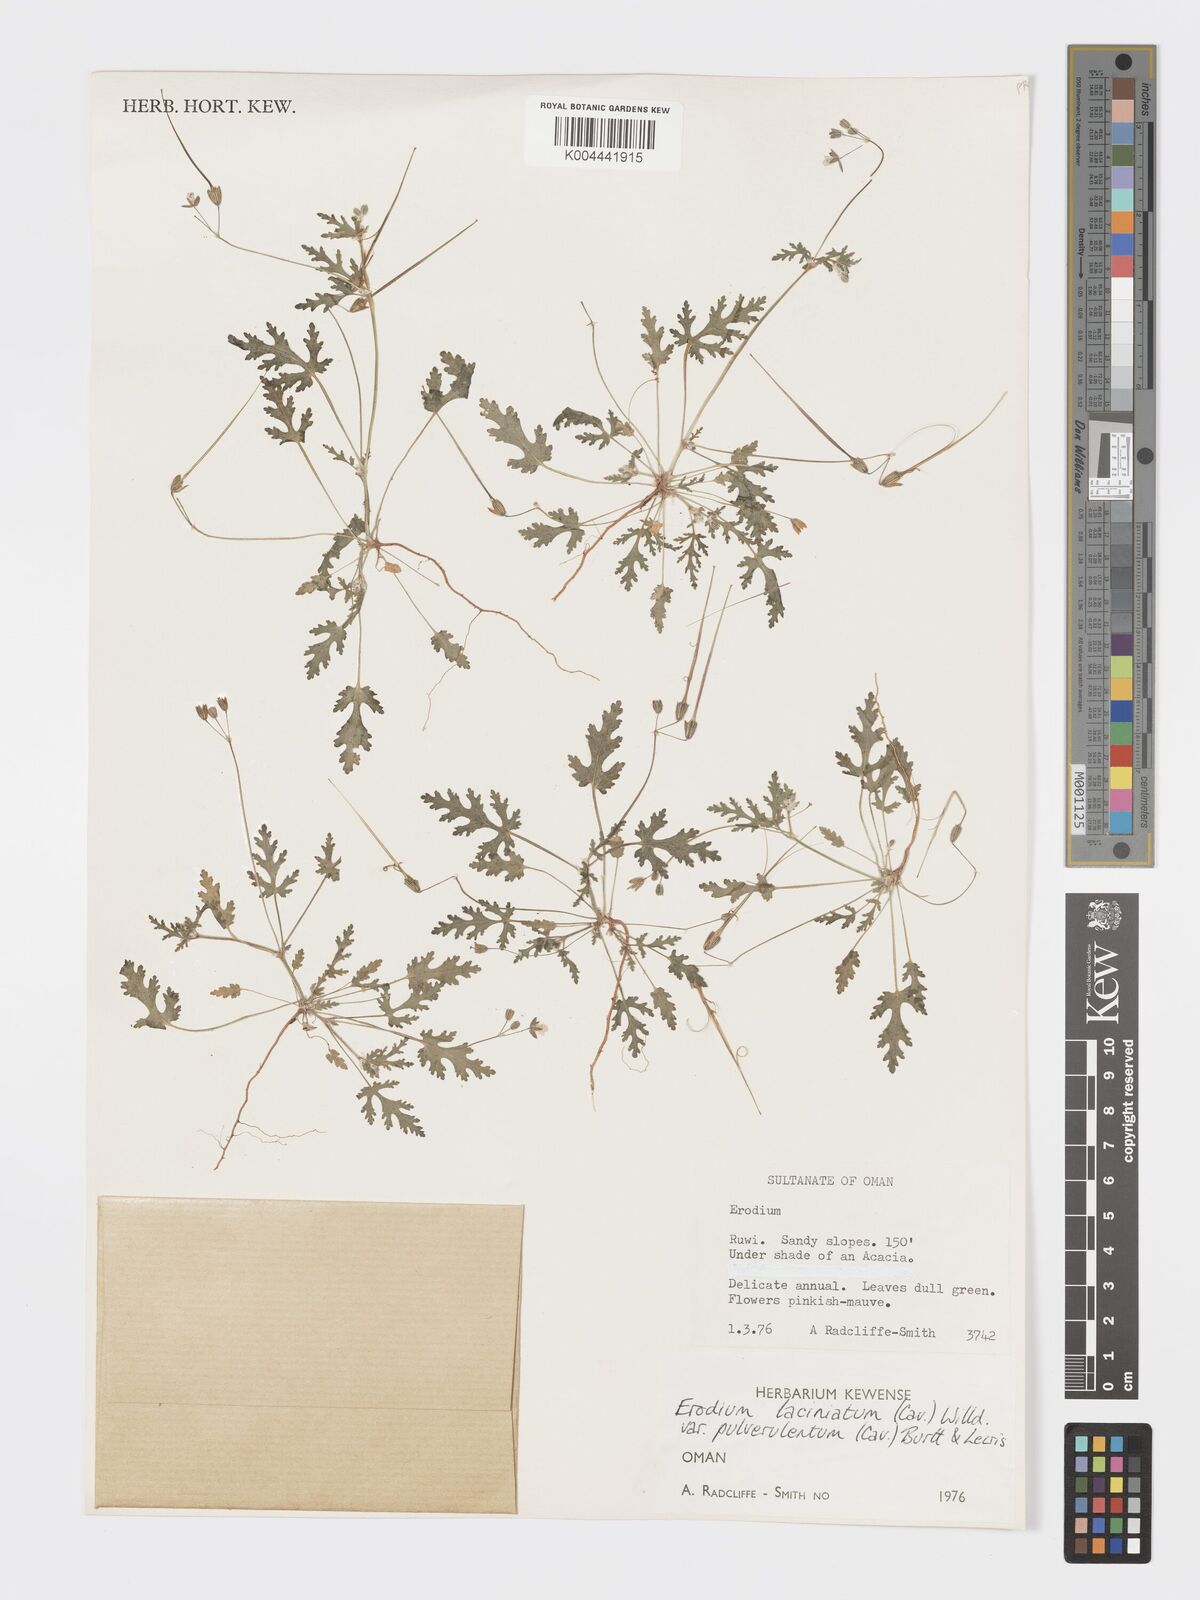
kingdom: Plantae
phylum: Tracheophyta
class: Magnoliopsida
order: Geraniales
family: Geraniaceae
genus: Erodium
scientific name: Erodium laciniatum
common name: Cutleaf stork's bill
